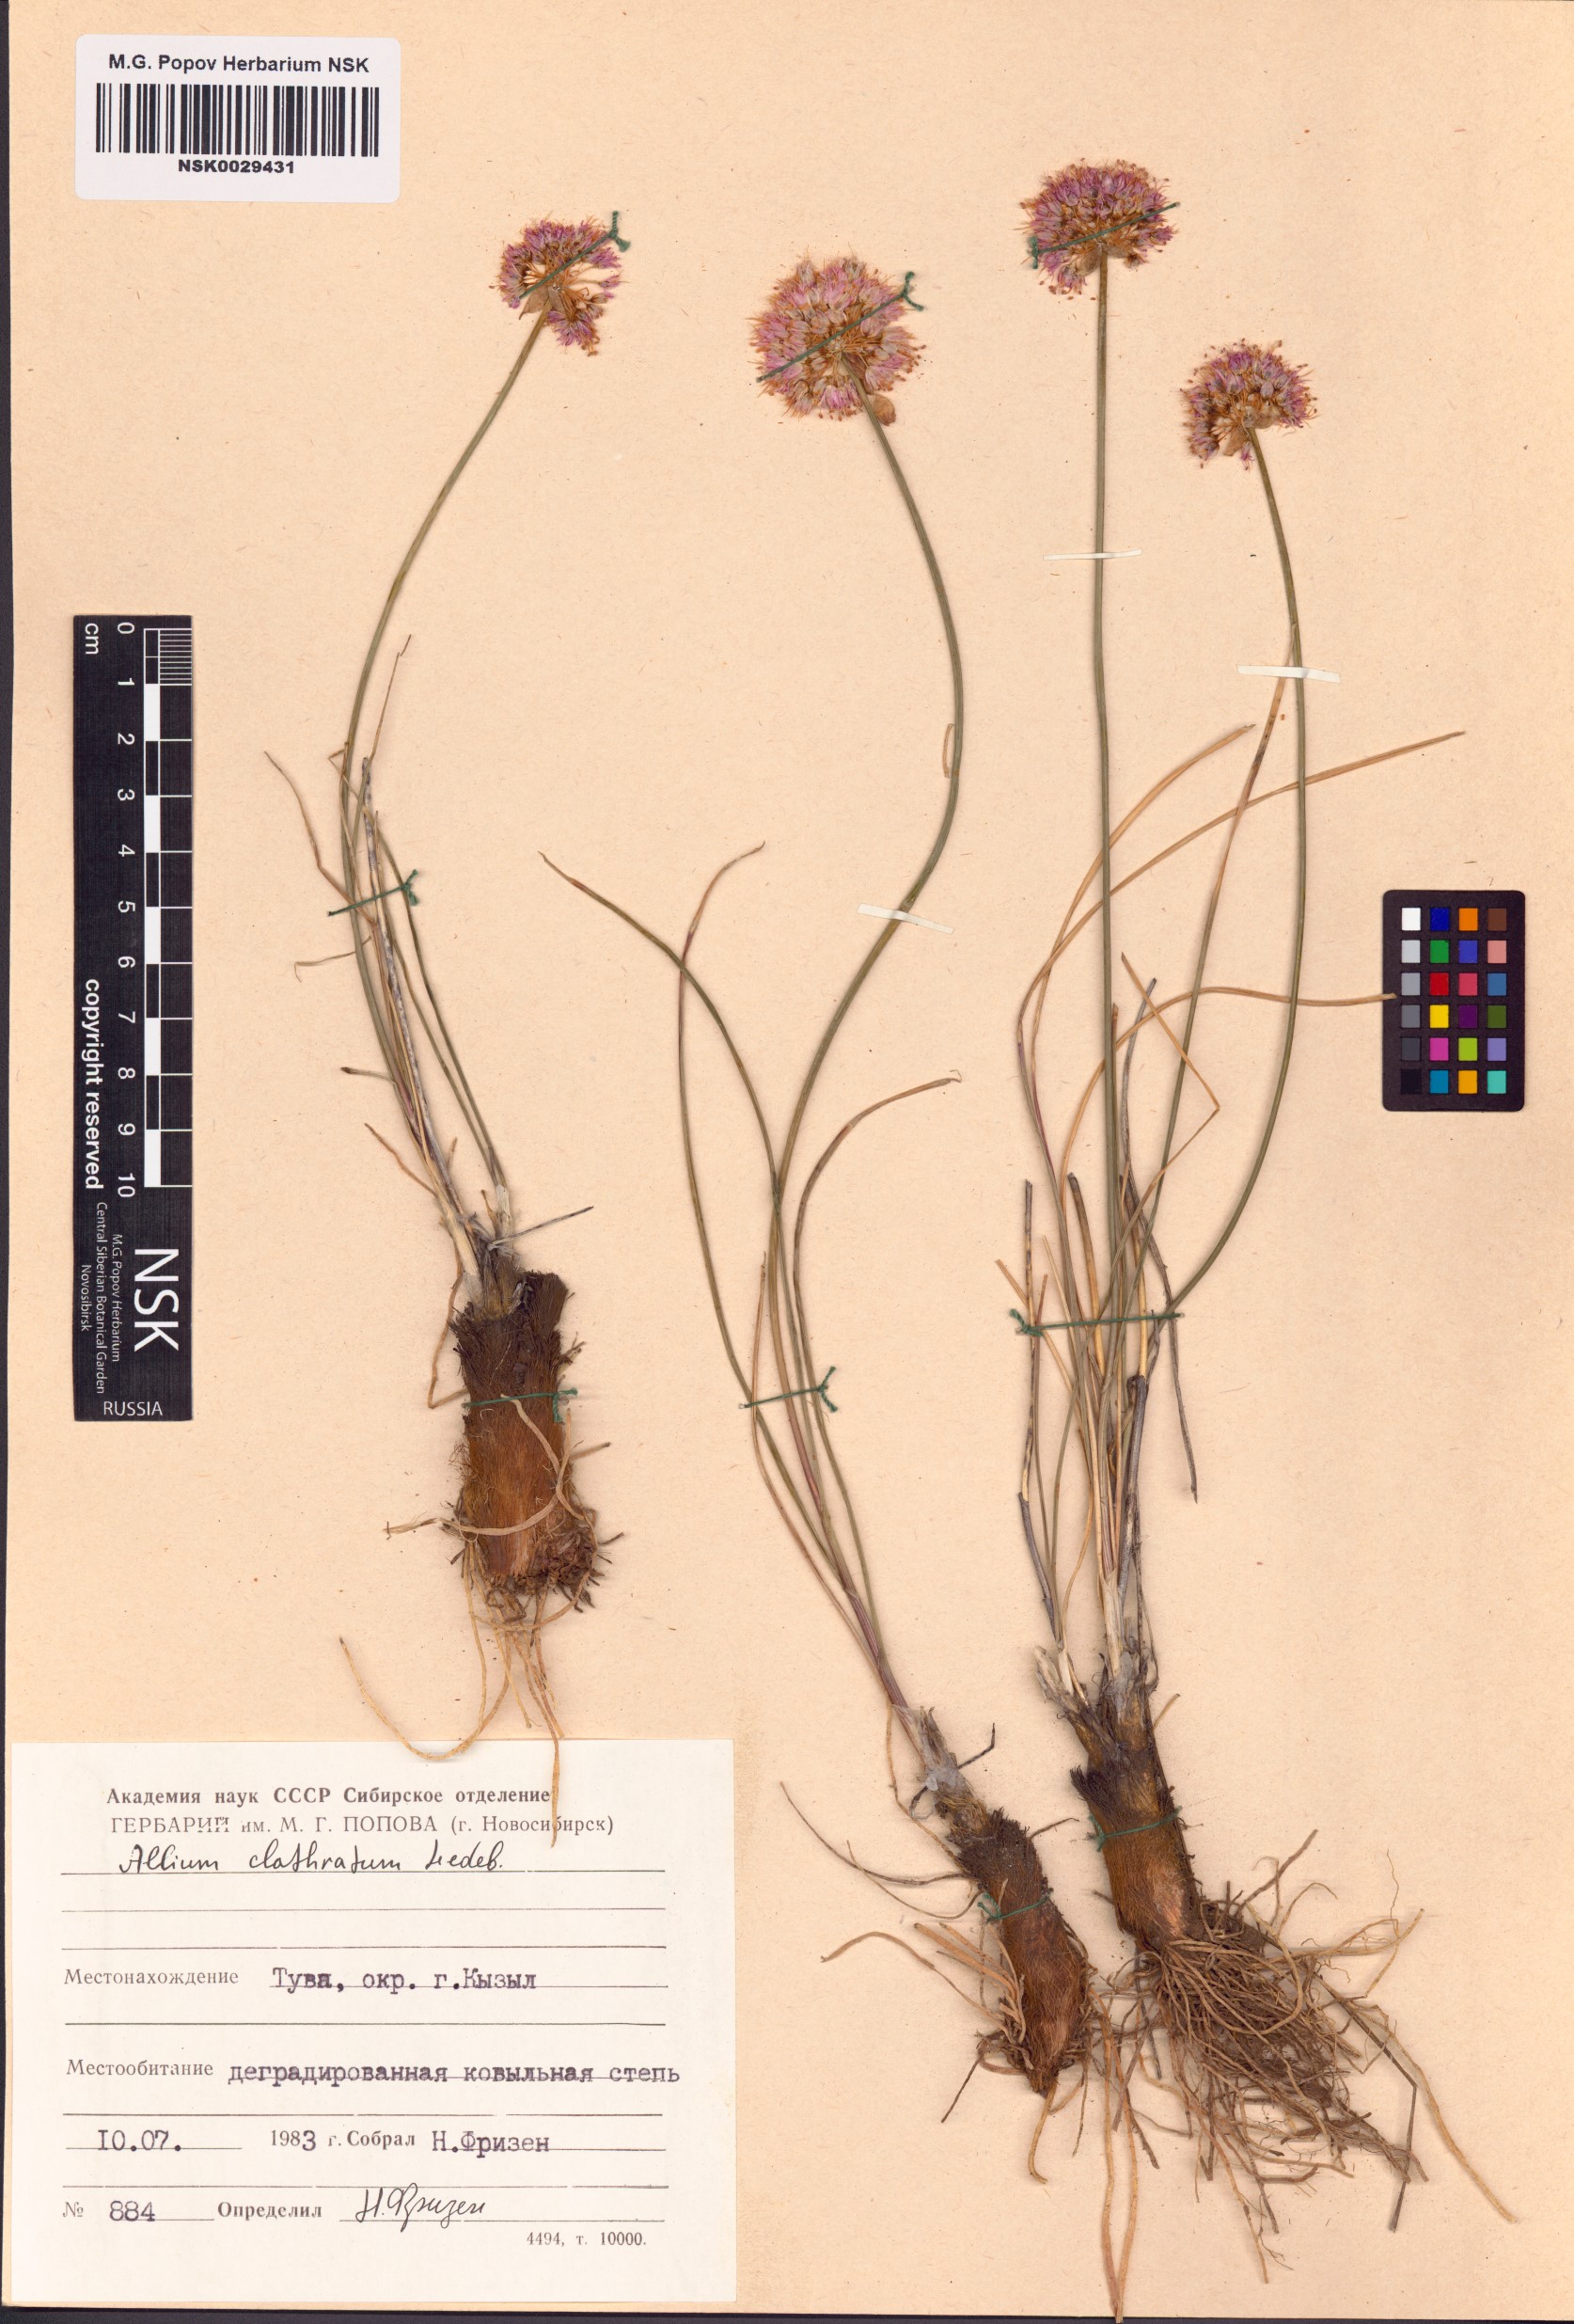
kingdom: Plantae
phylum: Tracheophyta
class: Liliopsida
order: Asparagales
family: Amaryllidaceae
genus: Allium
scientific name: Allium clathratum
